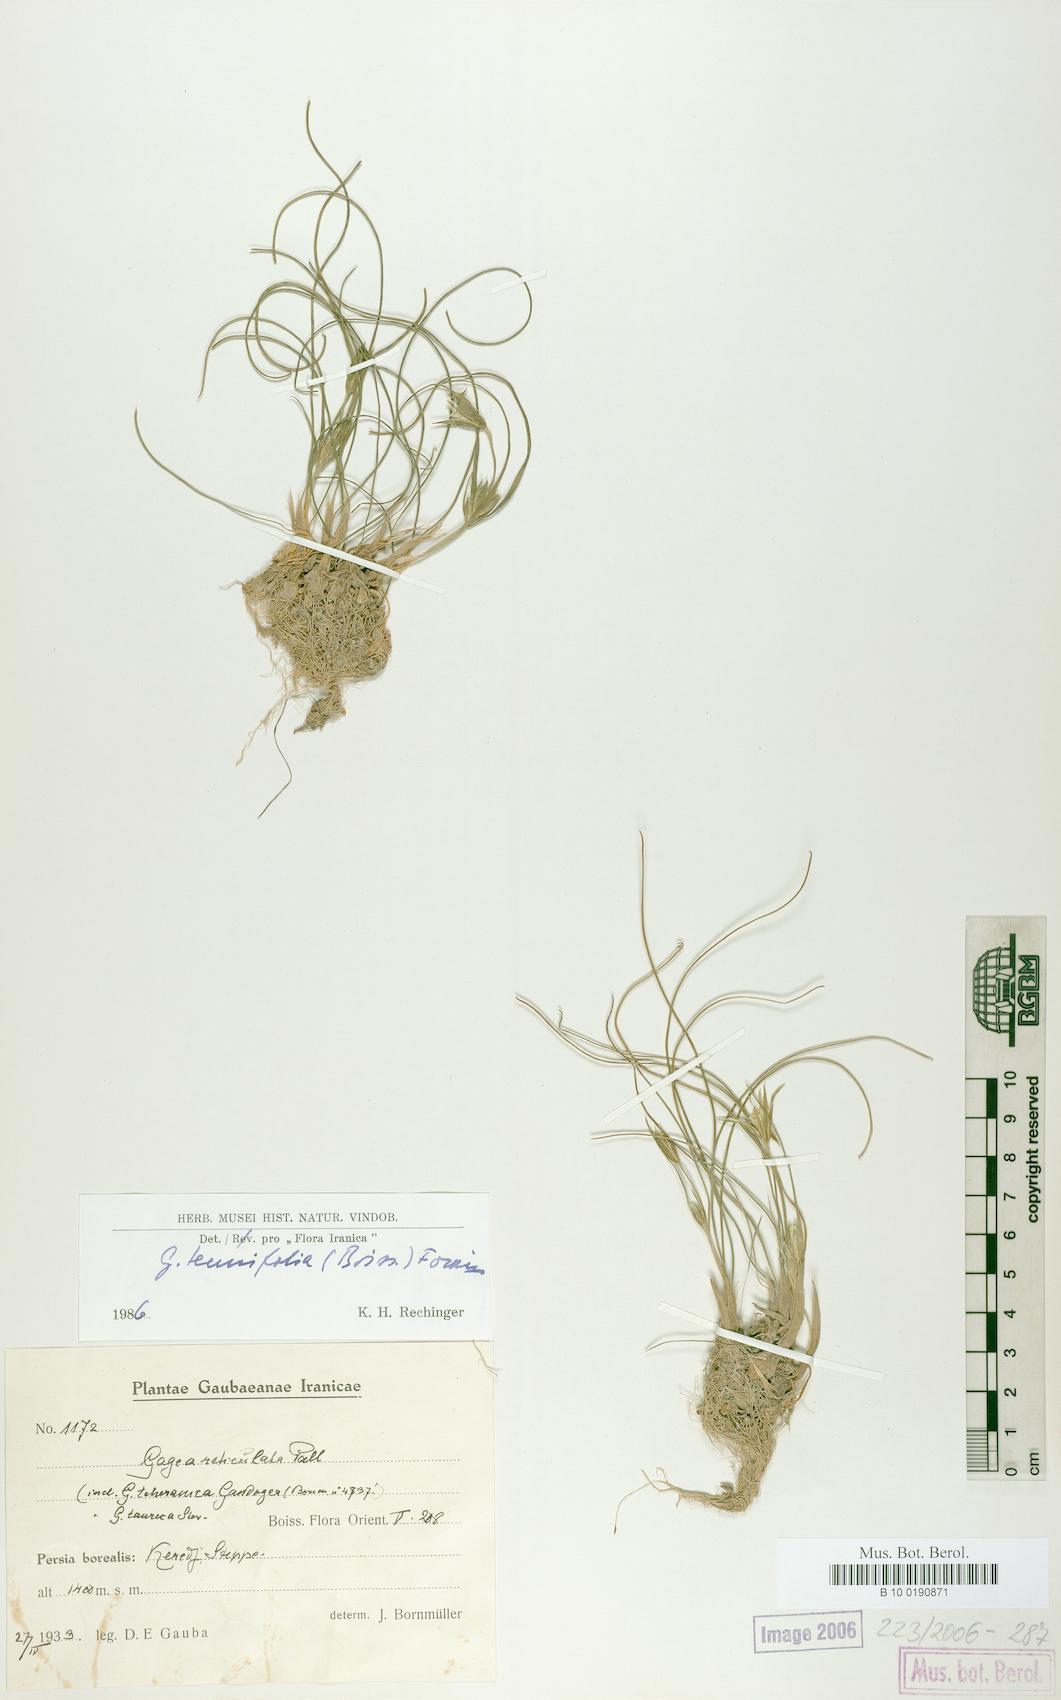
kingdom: Plantae
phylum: Tracheophyta
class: Liliopsida
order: Liliales
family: Liliaceae
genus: Gagea
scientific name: Gagea reticulata
